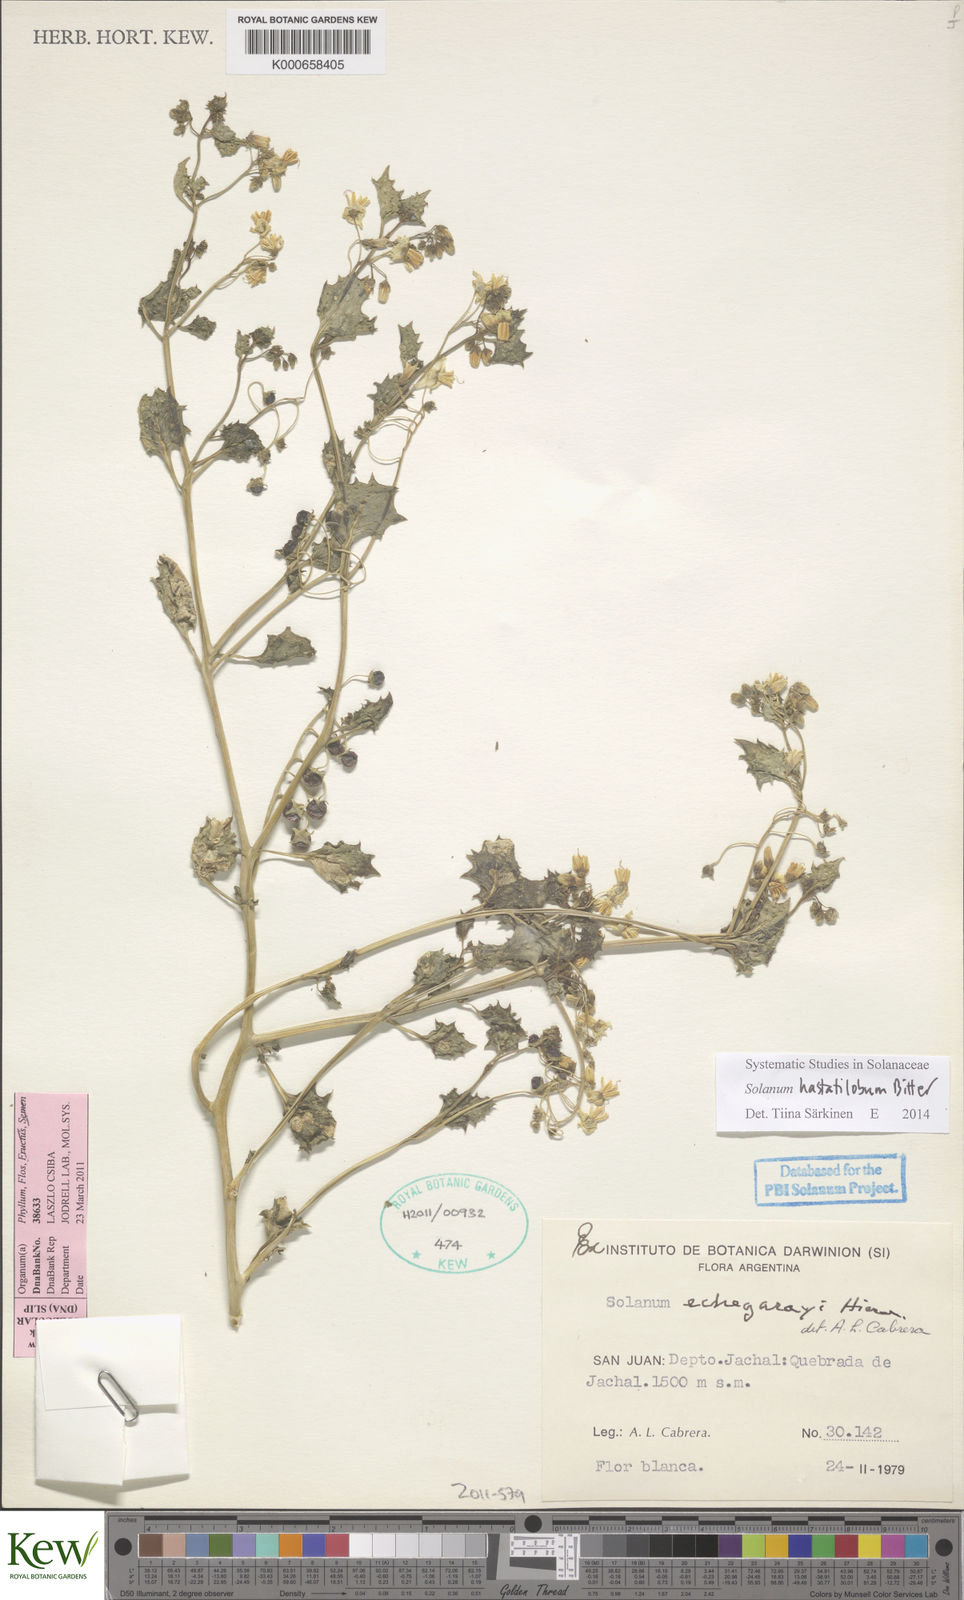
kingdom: Plantae
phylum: Tracheophyta
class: Magnoliopsida
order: Solanales
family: Solanaceae
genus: Solanum
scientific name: Solanum echegarayi
